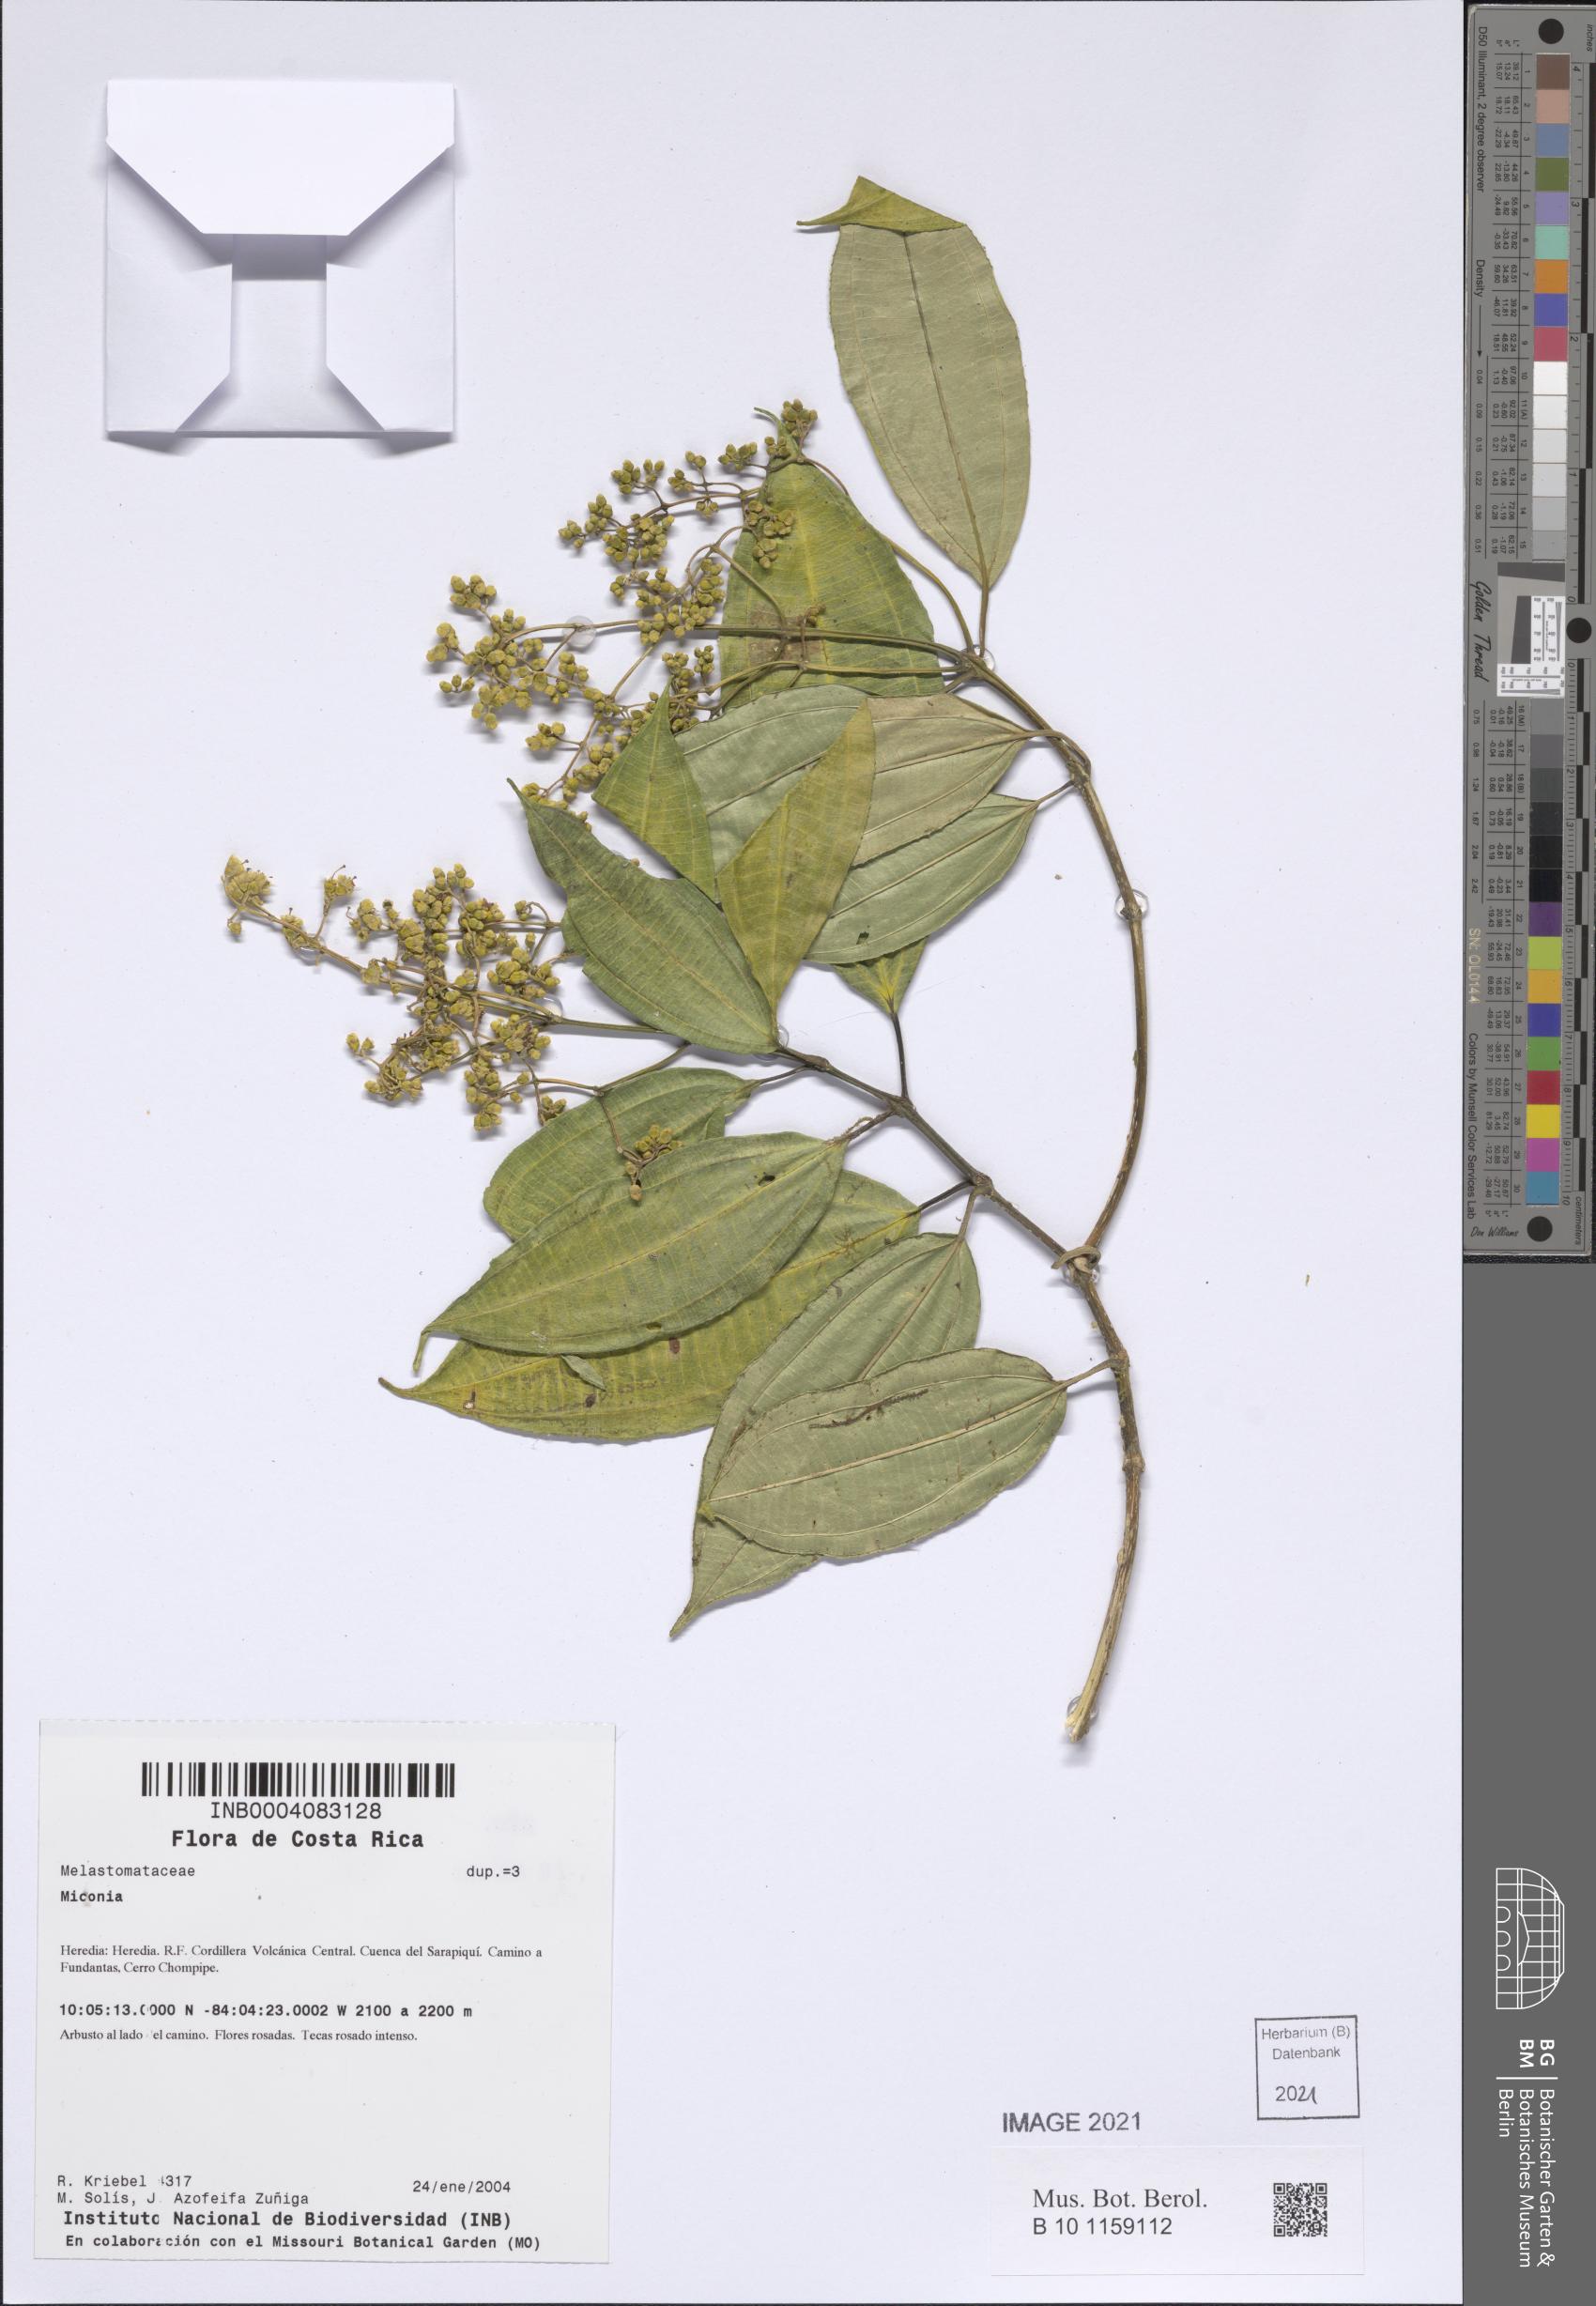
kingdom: Plantae
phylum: Tracheophyta
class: Magnoliopsida
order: Myrtales
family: Melastomataceae
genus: Miconia
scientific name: Miconia
